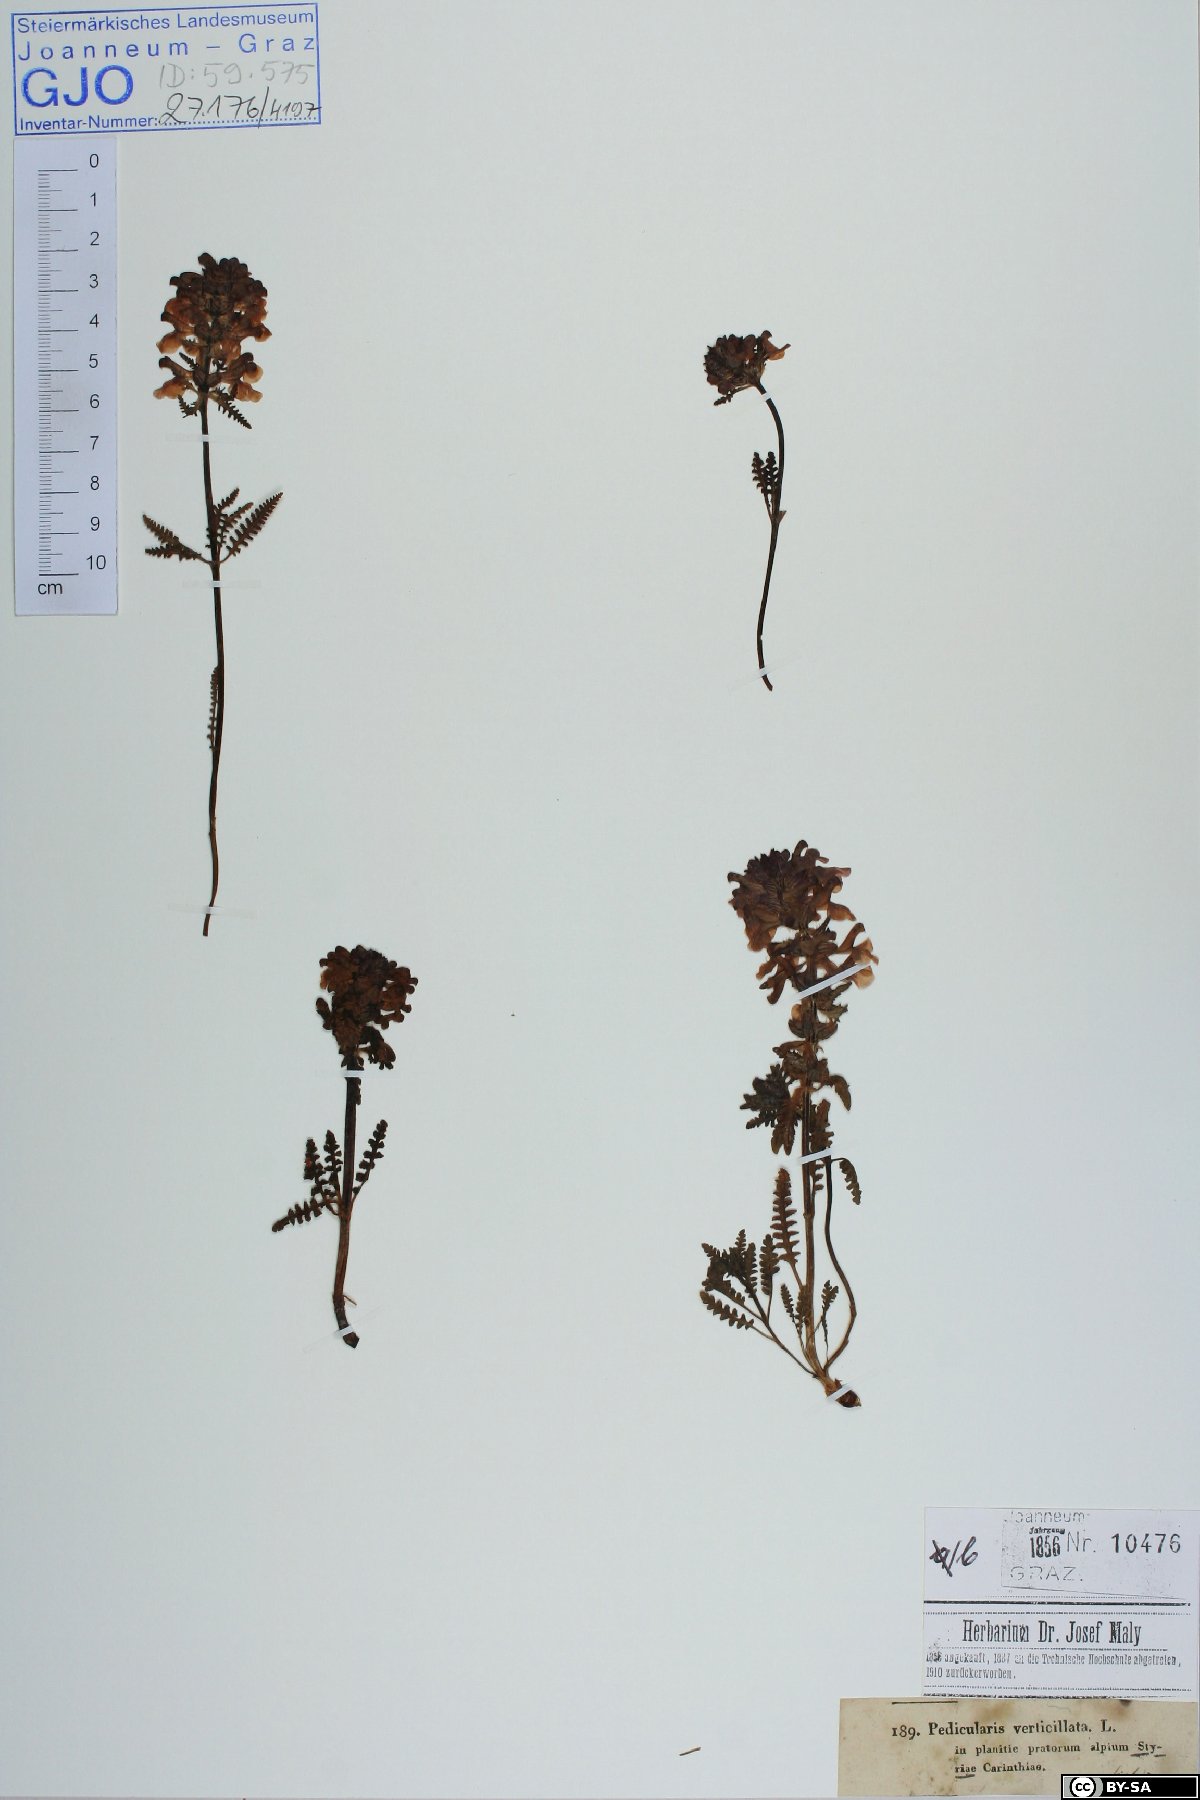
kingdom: Plantae
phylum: Tracheophyta
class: Magnoliopsida
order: Lamiales
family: Orobanchaceae
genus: Pedicularis
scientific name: Pedicularis verticillata
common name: Whorled lousewort
